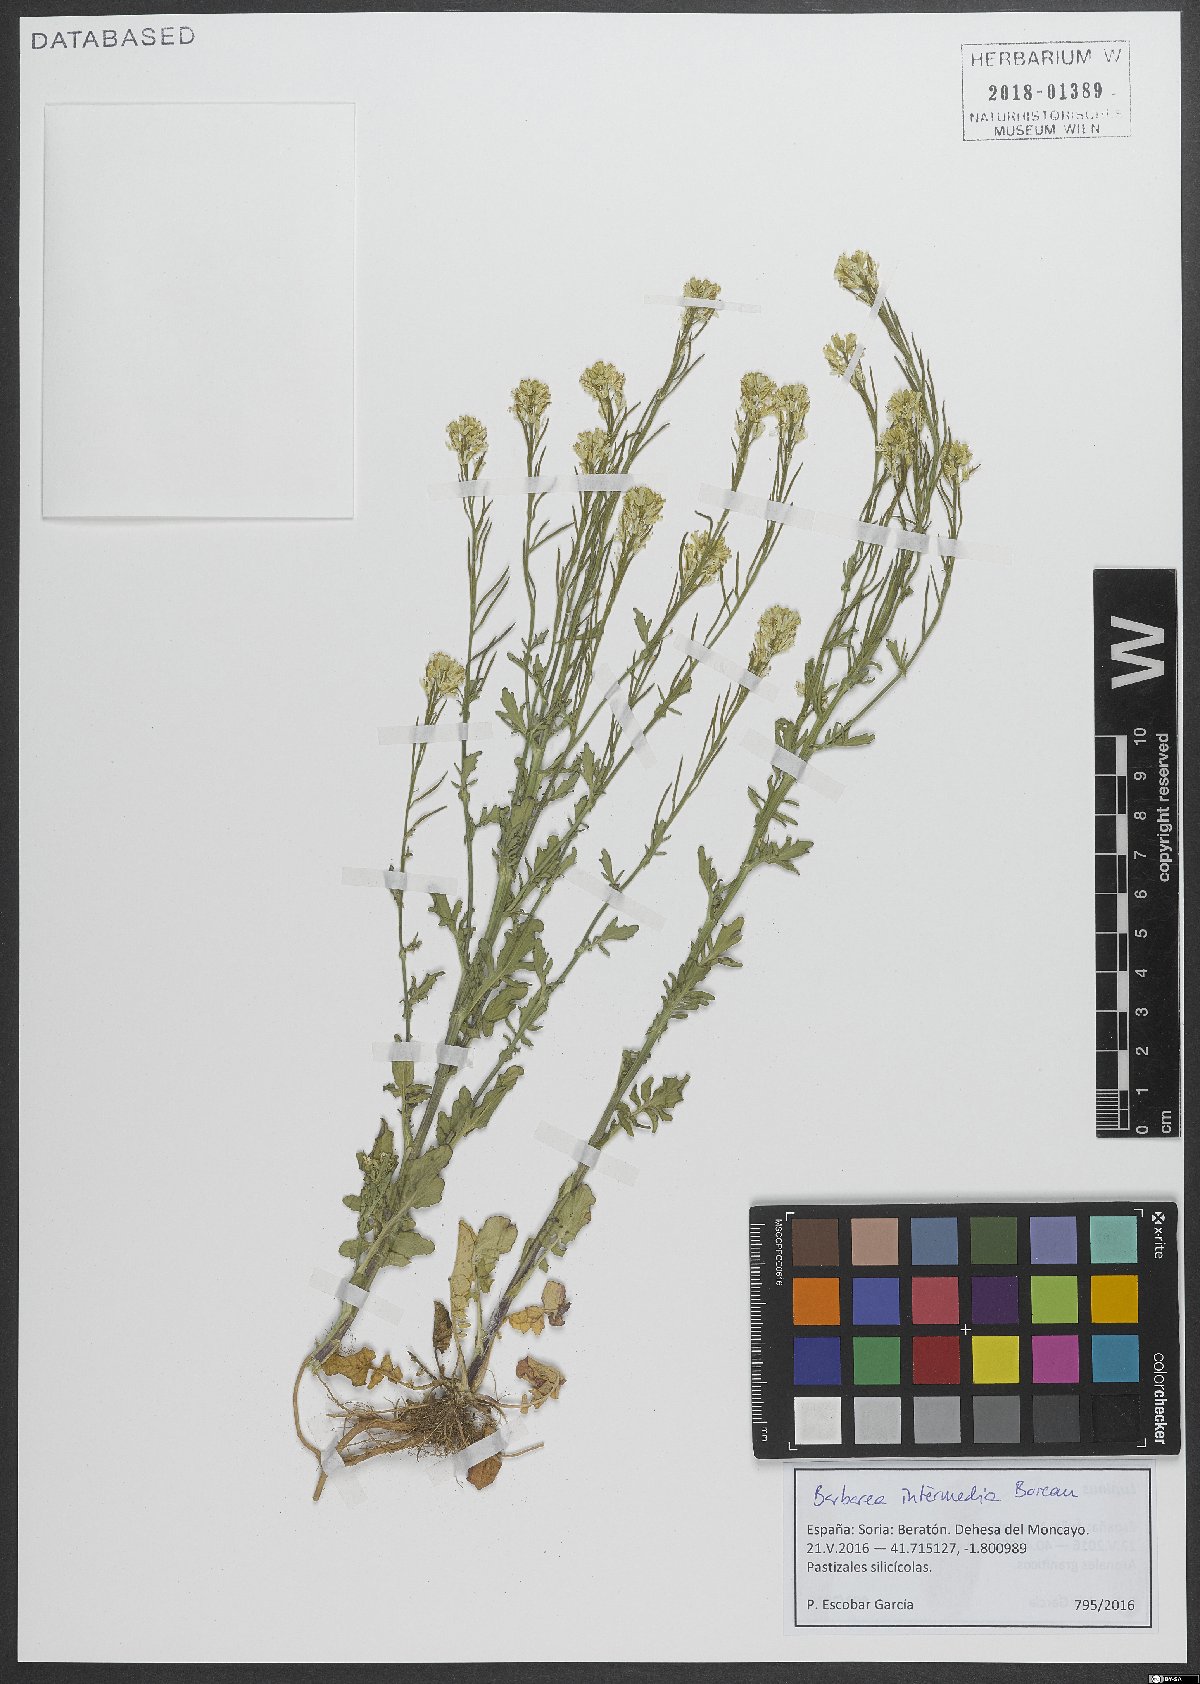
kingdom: Plantae
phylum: Tracheophyta
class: Magnoliopsida
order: Brassicales
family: Brassicaceae
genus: Barbarea
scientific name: Barbarea intermedia
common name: Medium-flowered winter-cress
